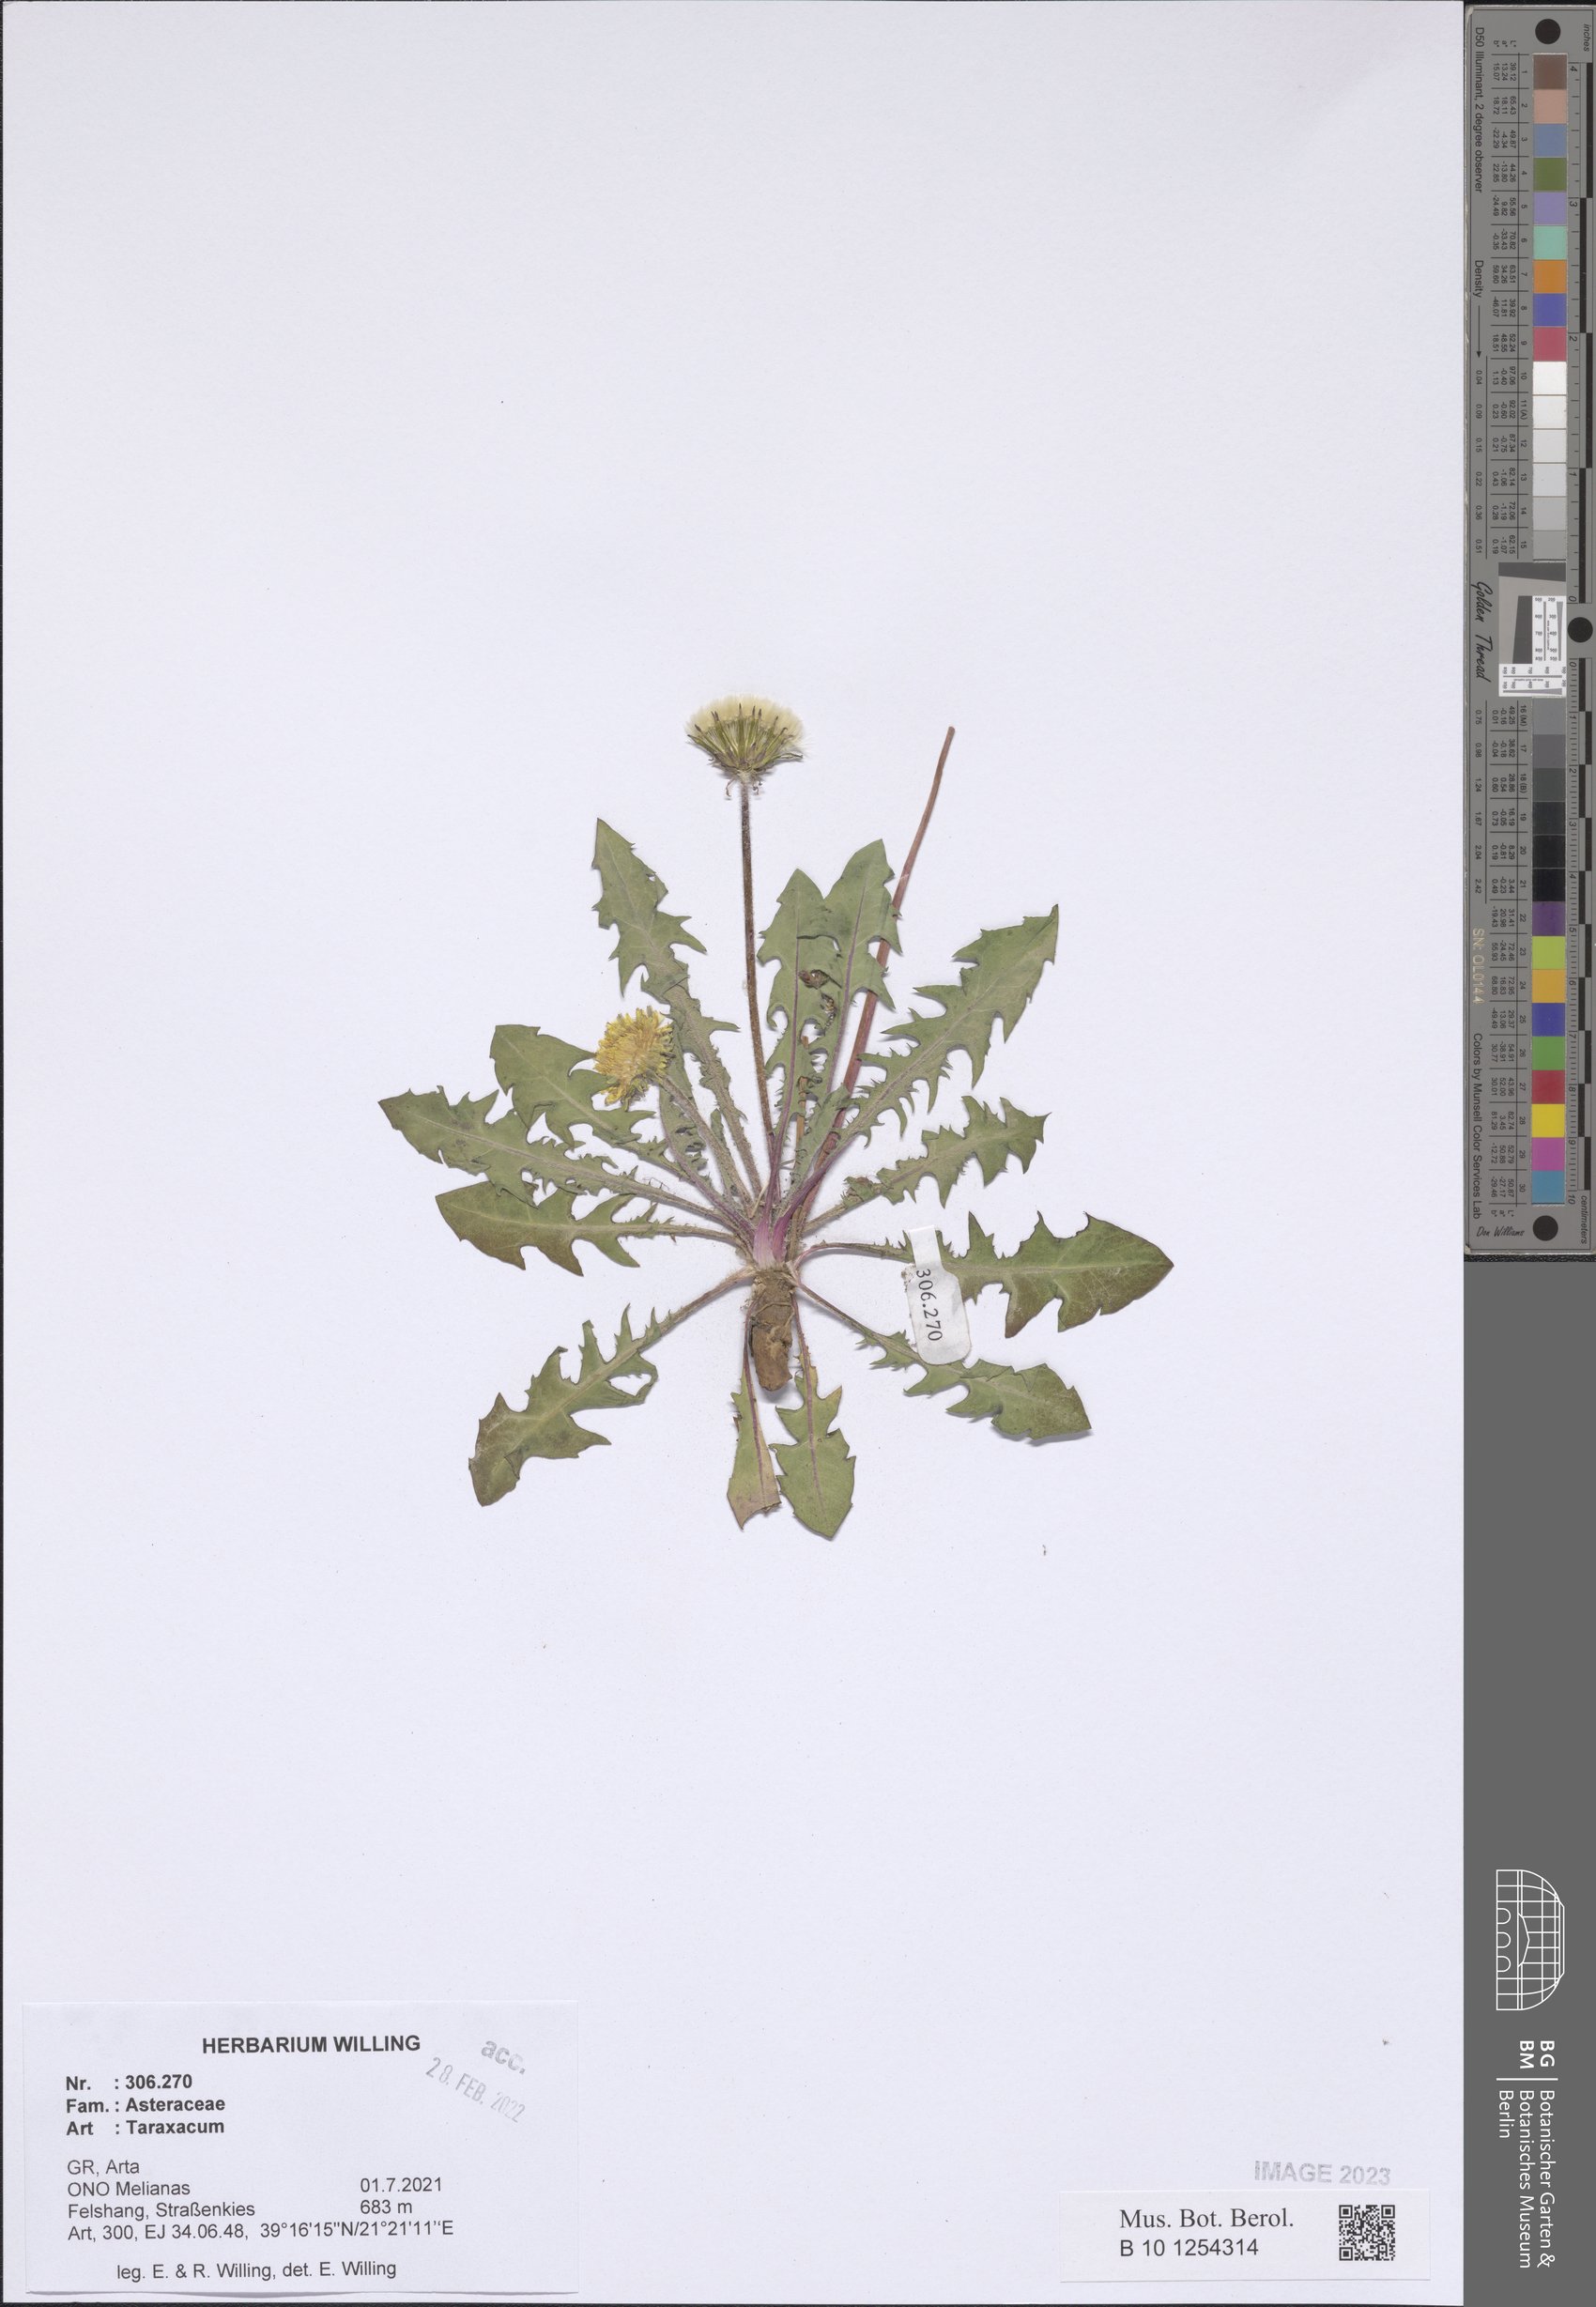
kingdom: Plantae
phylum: Tracheophyta
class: Magnoliopsida
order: Asterales
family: Asteraceae
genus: Taraxacum
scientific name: Taraxacum
